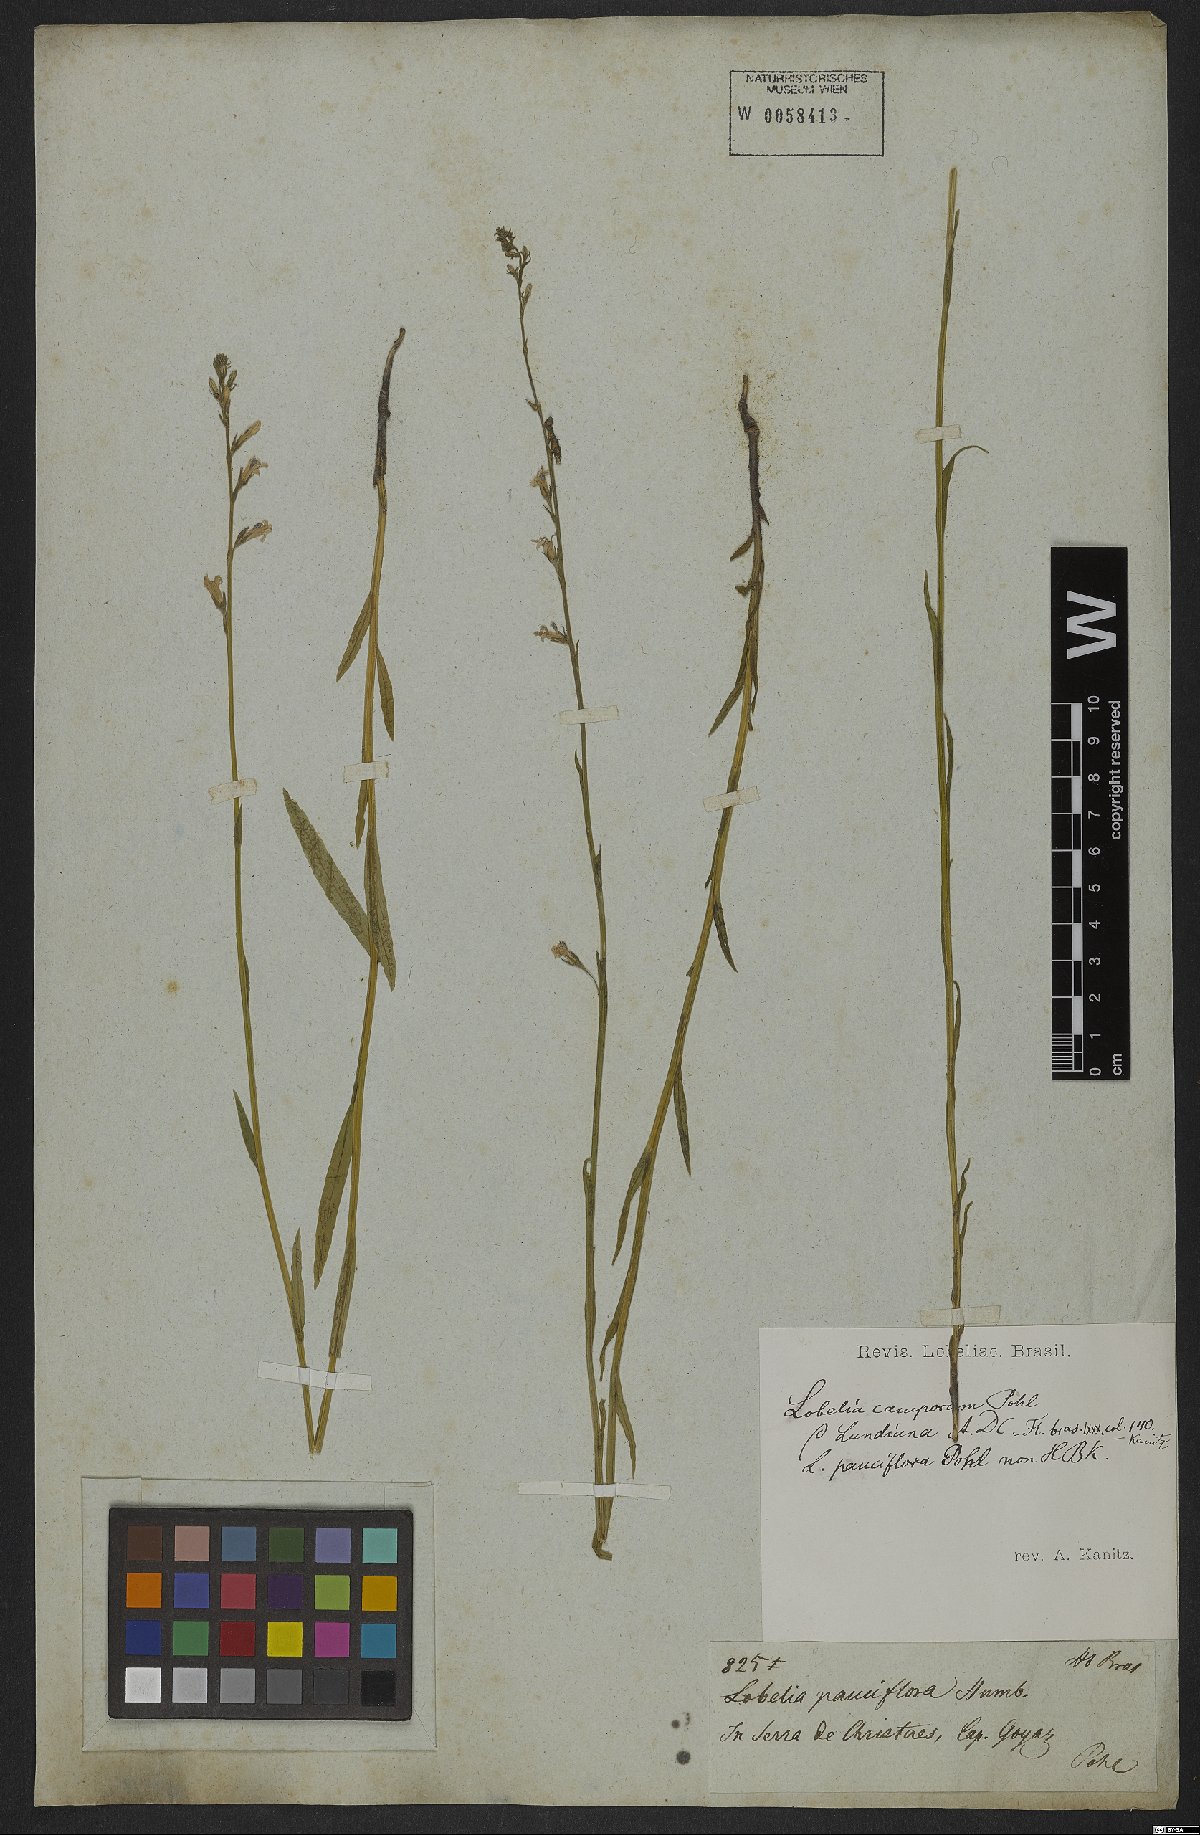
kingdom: Plantae
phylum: Tracheophyta
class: Magnoliopsida
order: Asterales
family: Campanulaceae
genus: Lobelia
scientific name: Lobelia camporum
